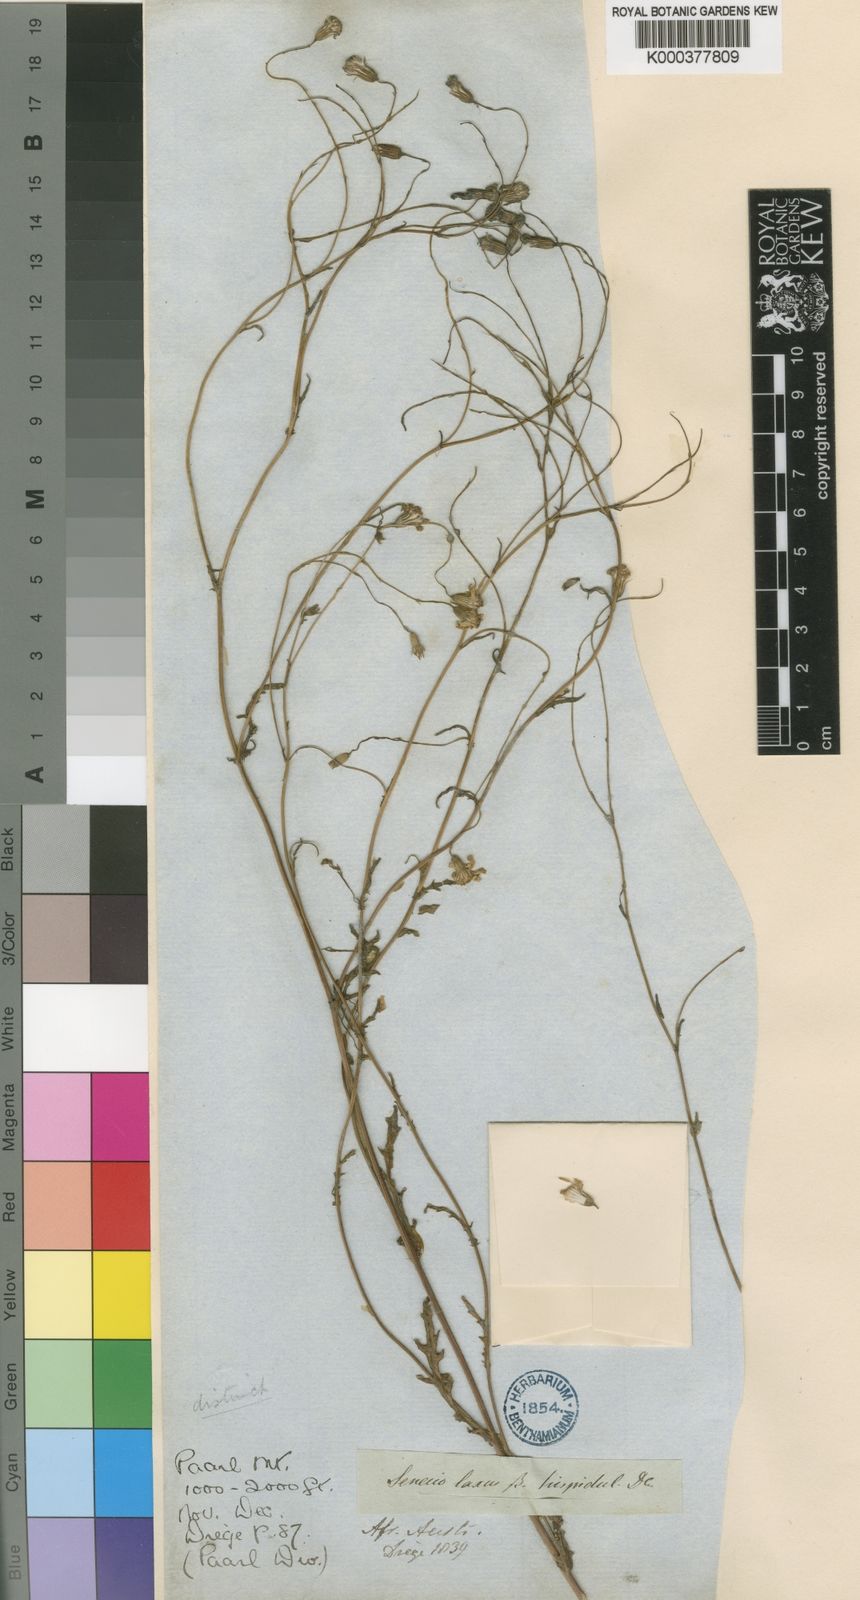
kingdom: Plantae
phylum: Tracheophyta
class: Magnoliopsida
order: Asterales
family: Asteraceae
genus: Senecio
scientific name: Senecio laxus
